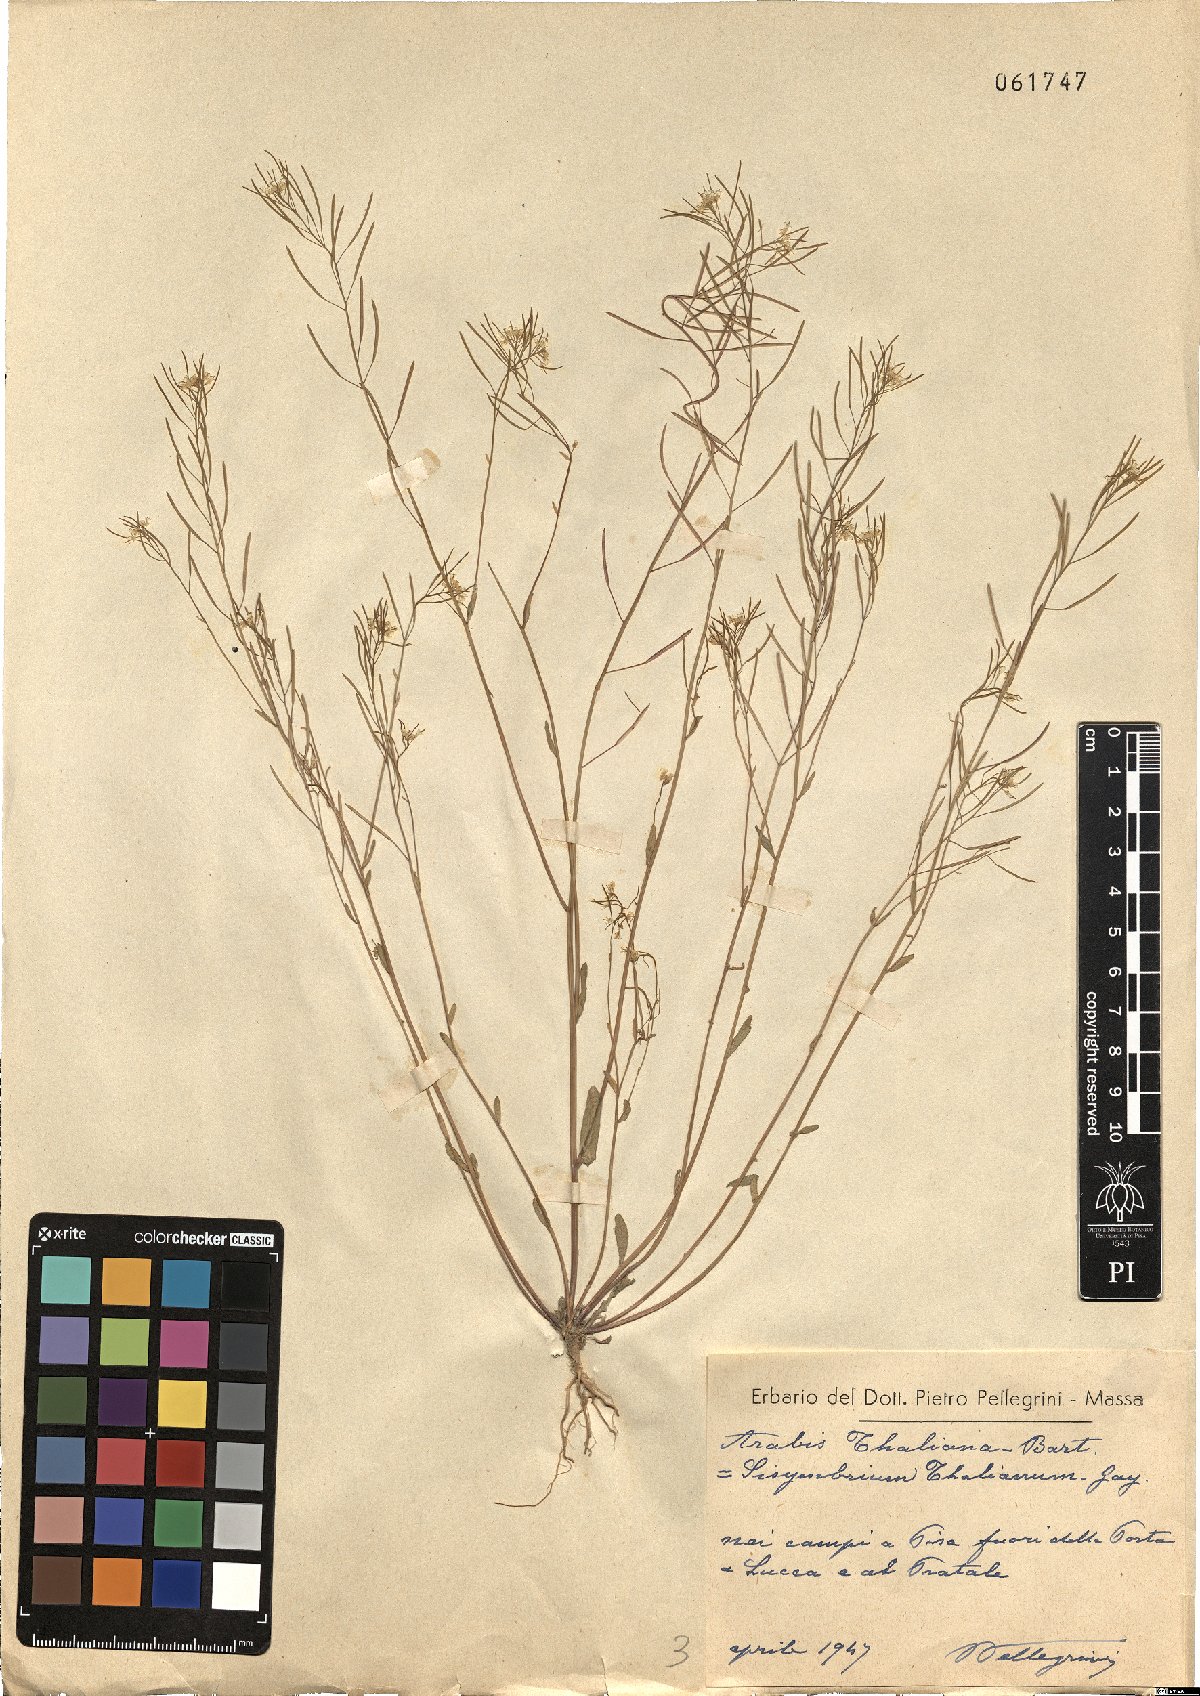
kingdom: Plantae
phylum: Tracheophyta
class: Magnoliopsida
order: Brassicales
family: Brassicaceae
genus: Arabidopsis
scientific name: Arabidopsis thaliana
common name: Thale cress
